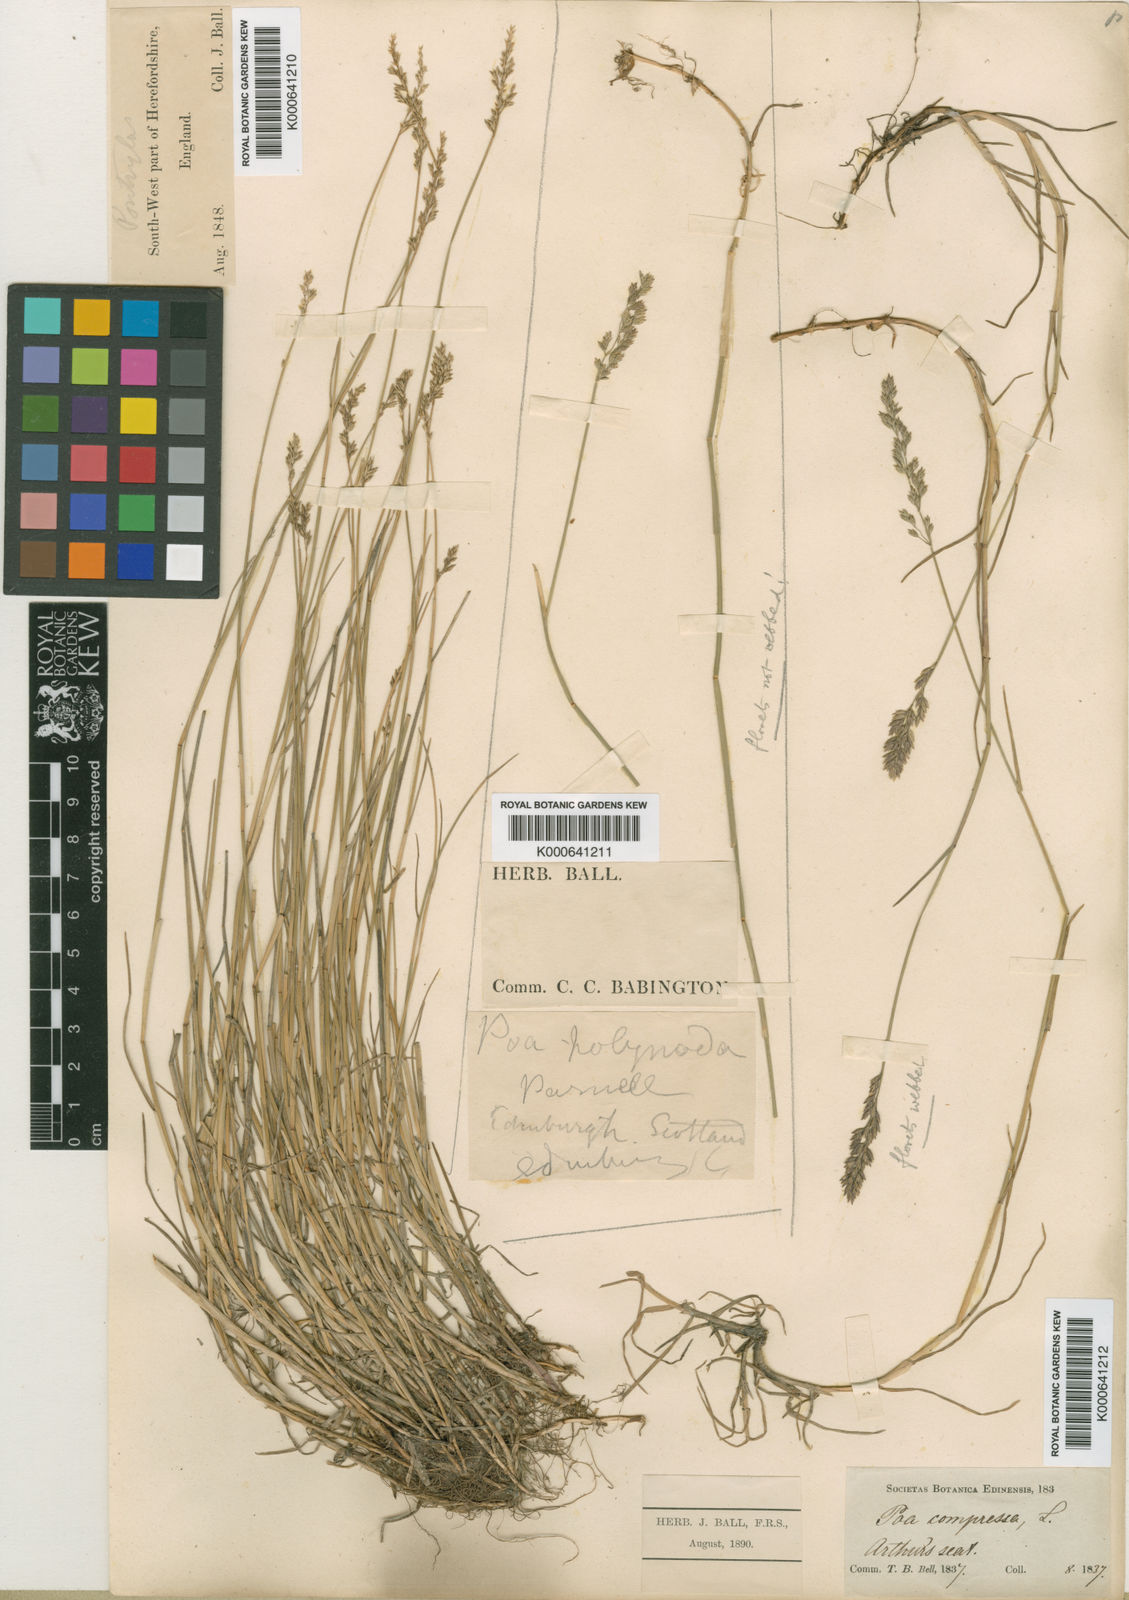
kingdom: Plantae
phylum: Tracheophyta
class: Liliopsida
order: Poales
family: Poaceae
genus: Poa
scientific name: Poa compressa
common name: Canada bluegrass
